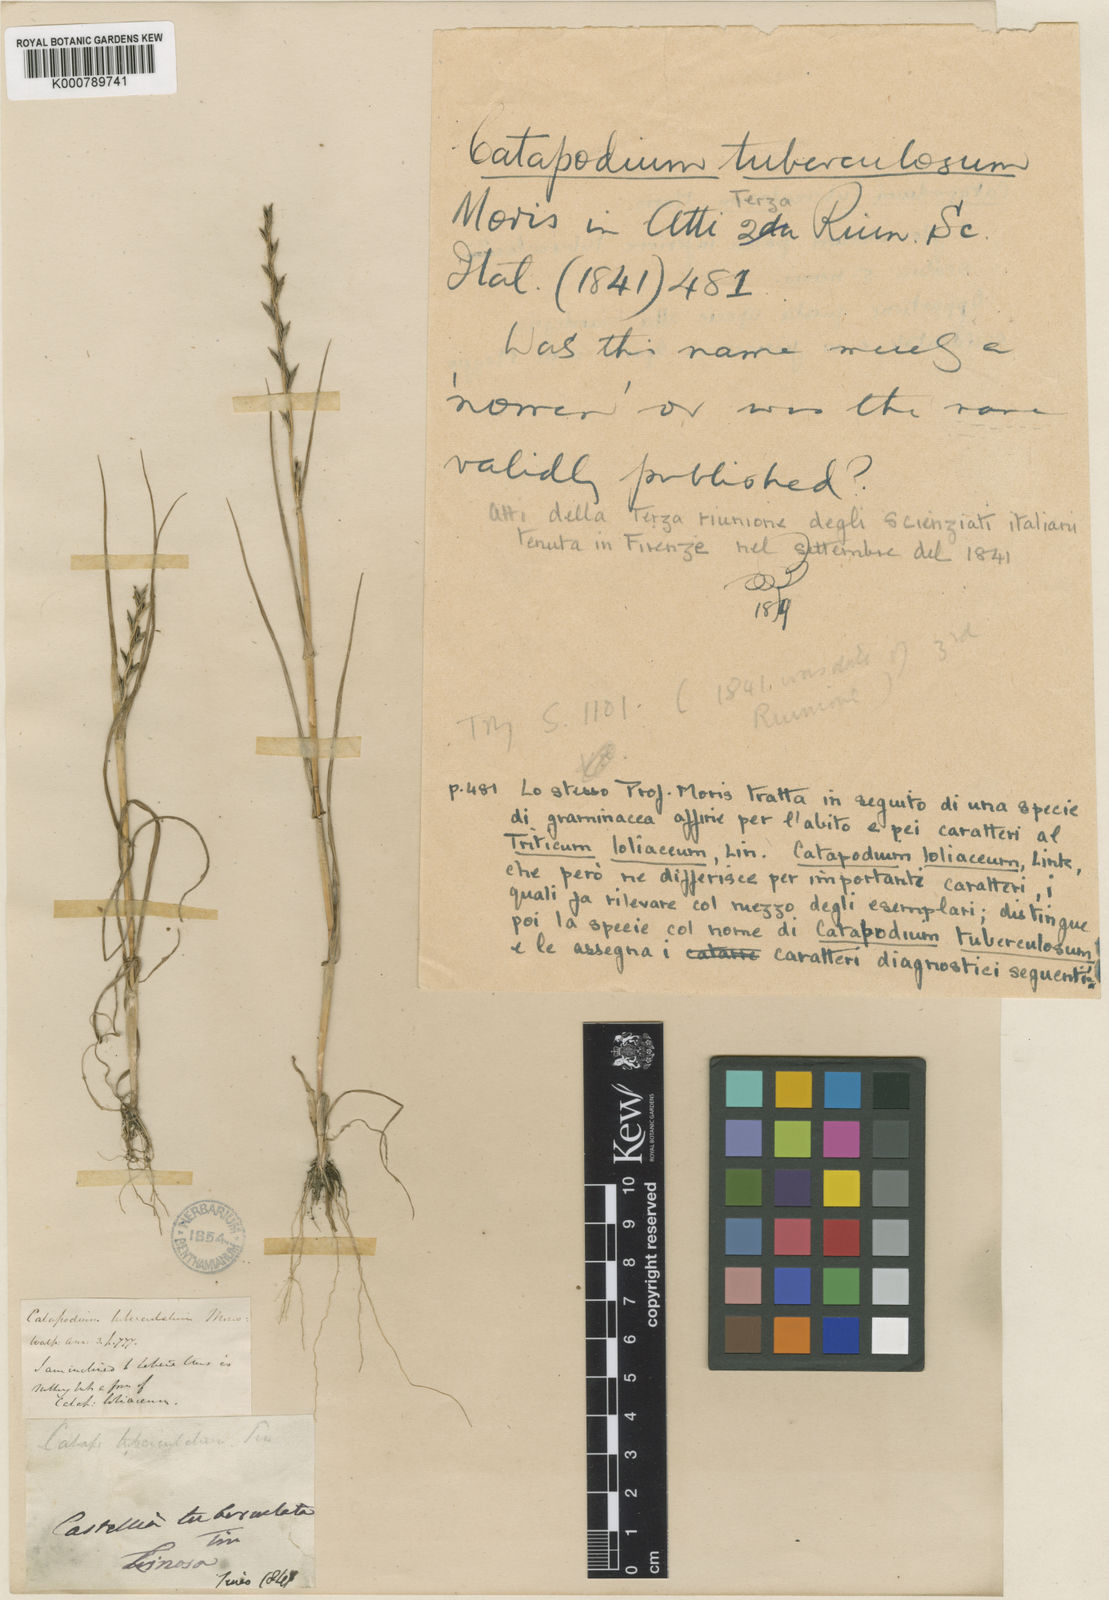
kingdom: Plantae
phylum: Tracheophyta
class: Liliopsida
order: Poales
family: Poaceae
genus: Castellia
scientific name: Castellia
